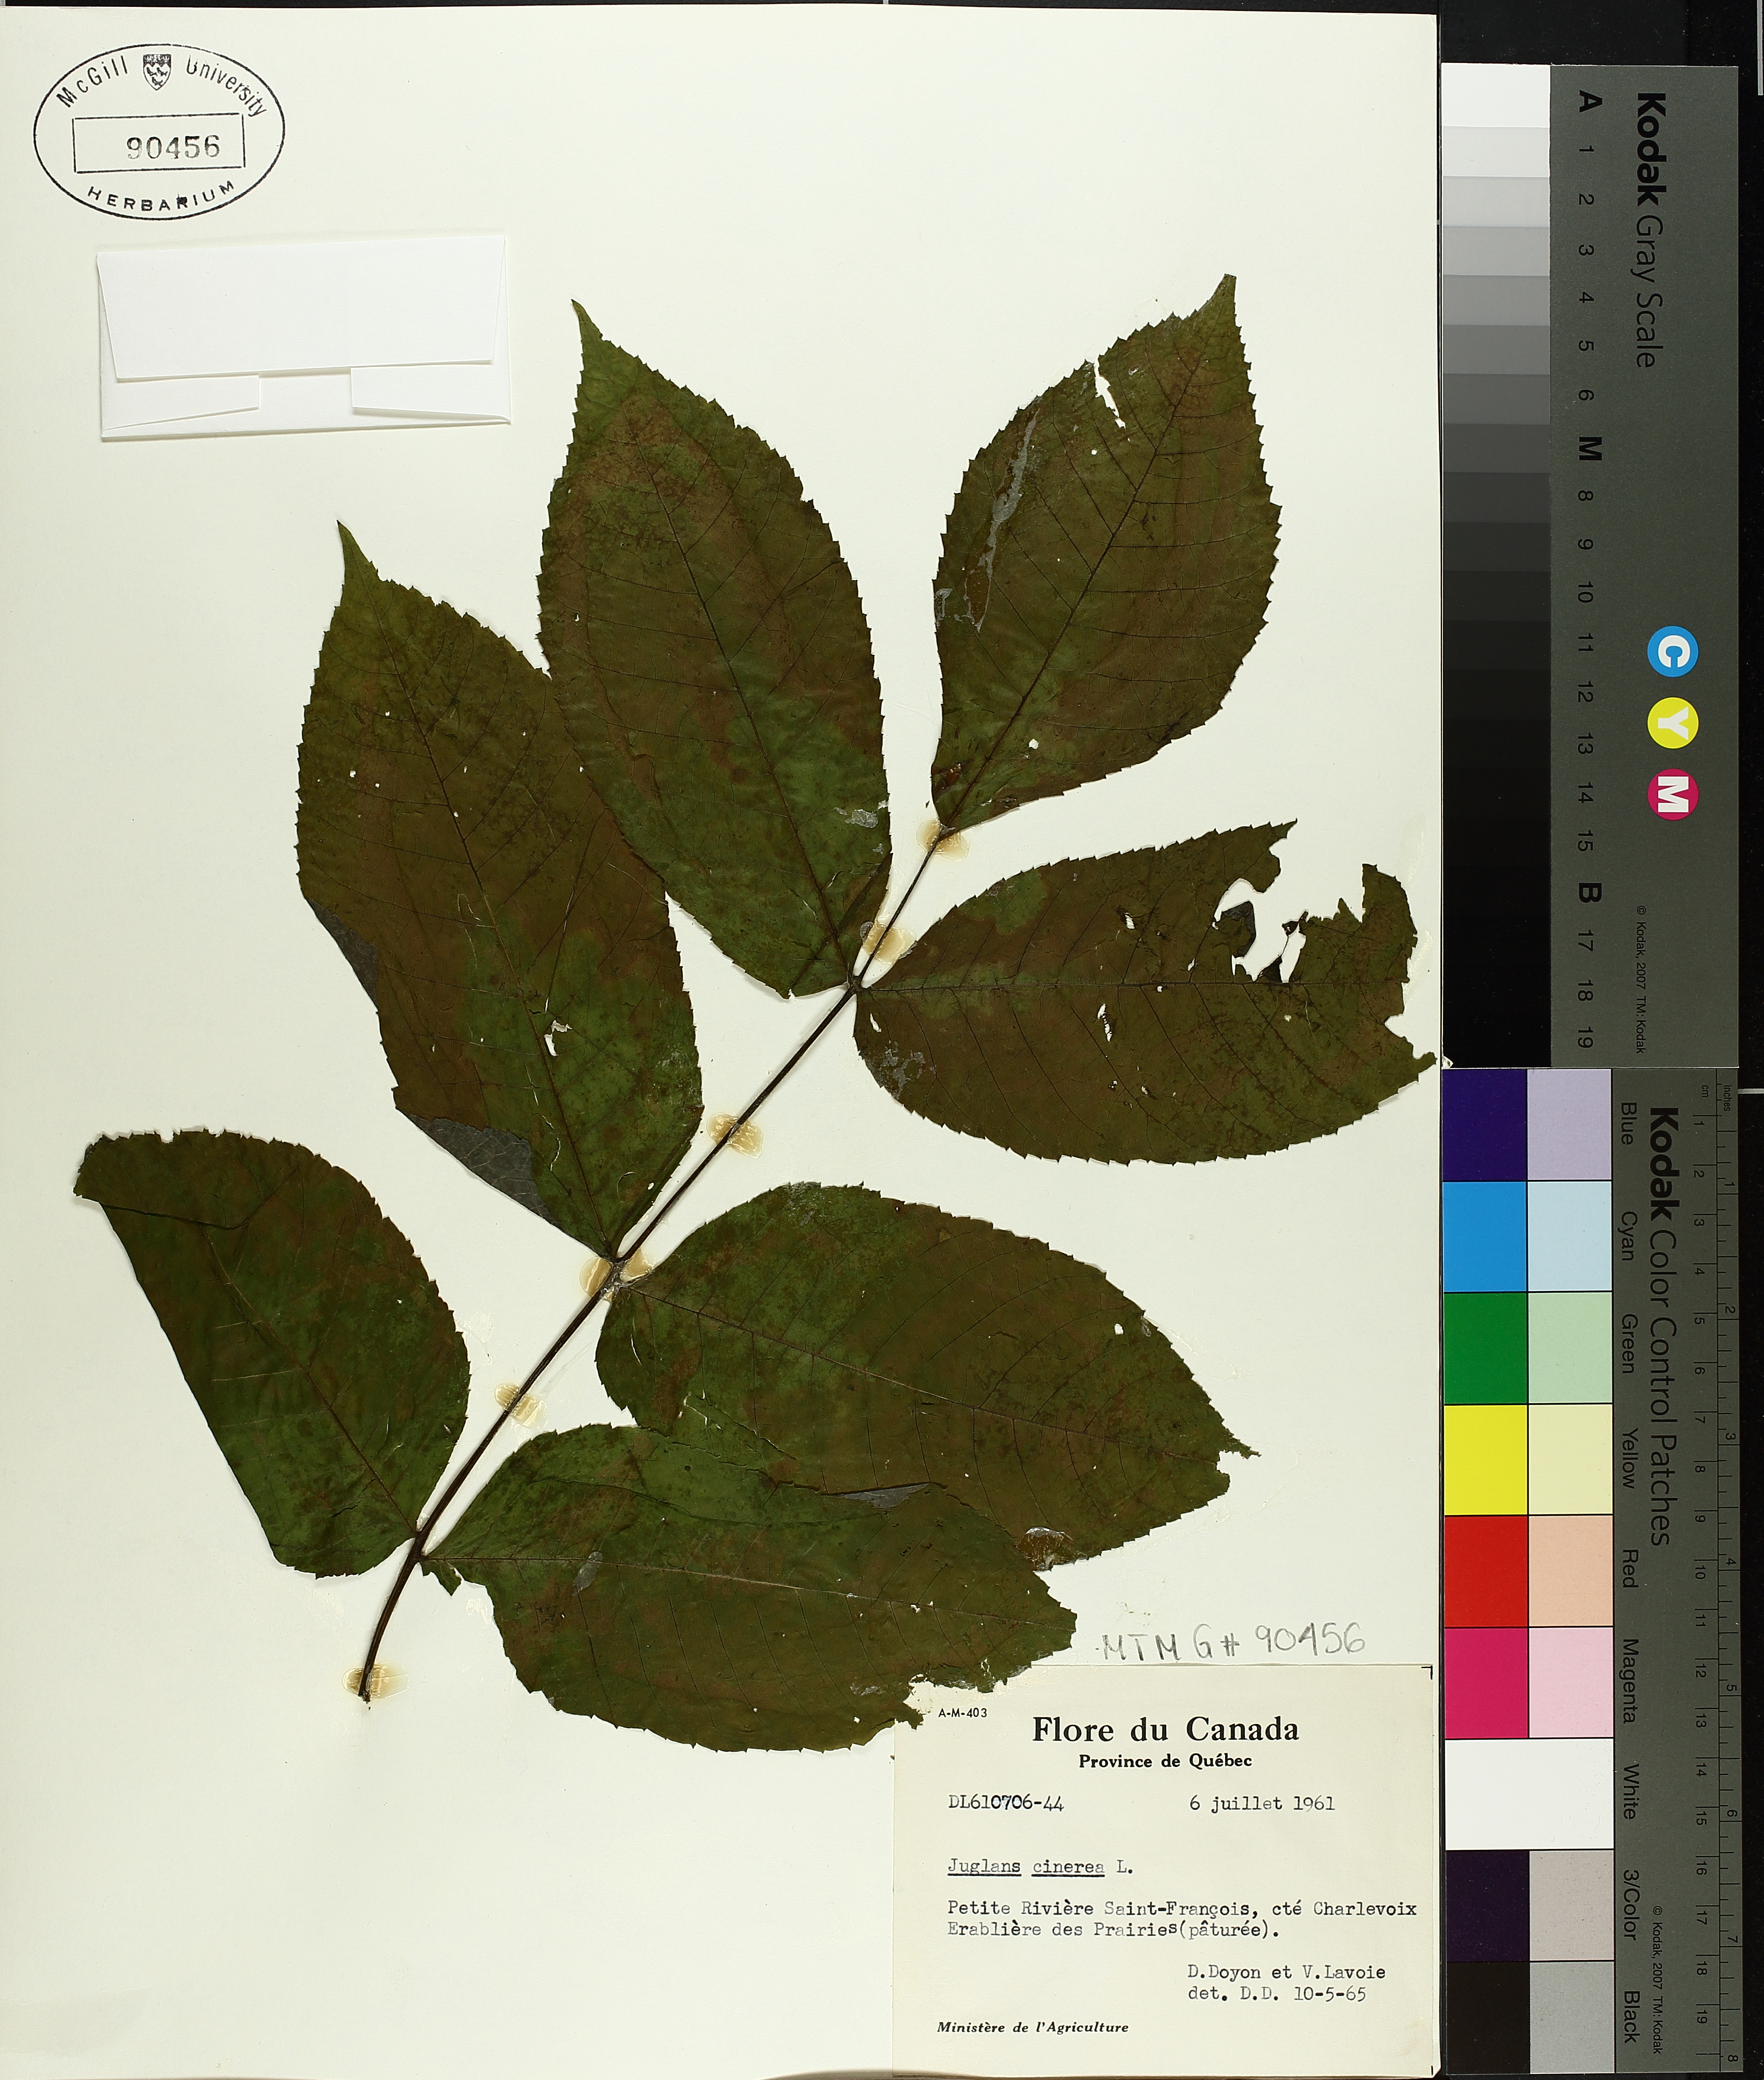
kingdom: Plantae
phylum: Tracheophyta
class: Magnoliopsida
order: Fagales
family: Juglandaceae
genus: Juglans
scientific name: Juglans cinerea
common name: Butternut
